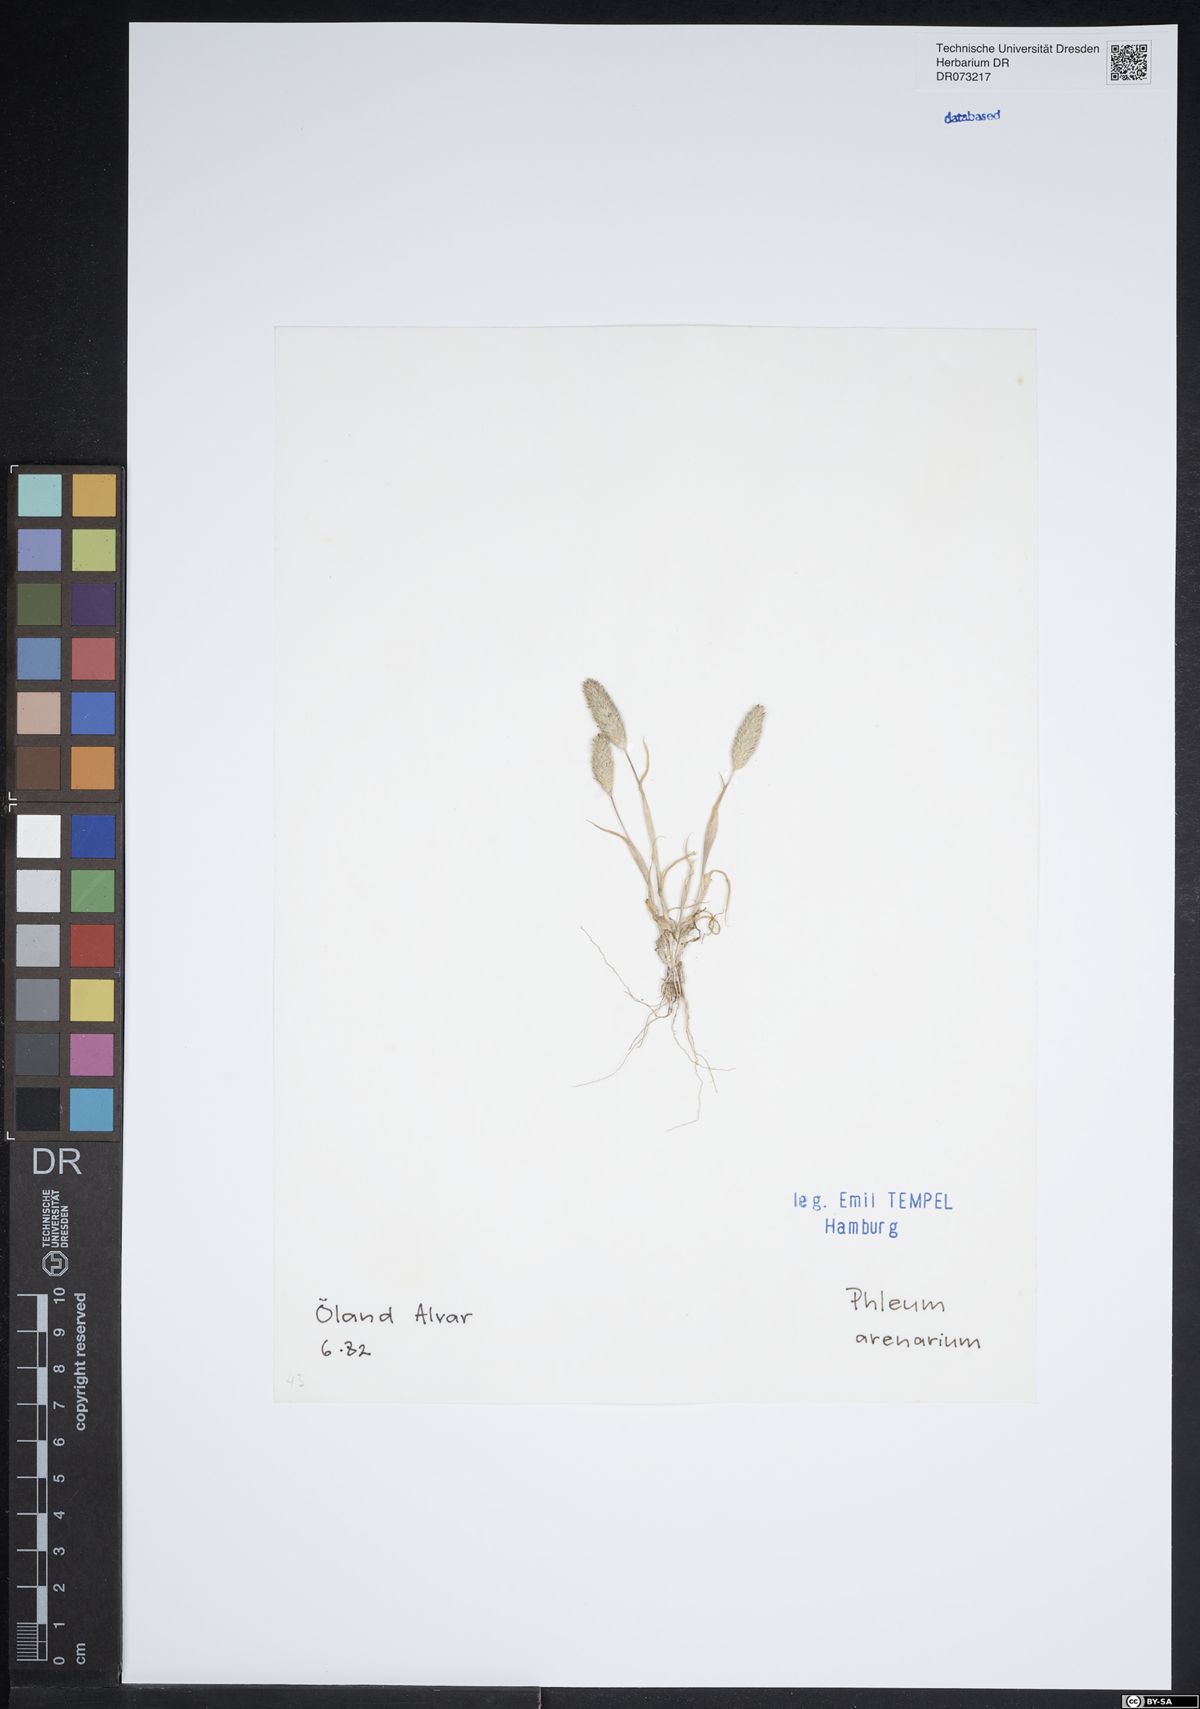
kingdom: Plantae
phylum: Tracheophyta
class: Liliopsida
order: Poales
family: Poaceae
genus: Phleum
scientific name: Phleum arenarium
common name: Sand cat's-tail
